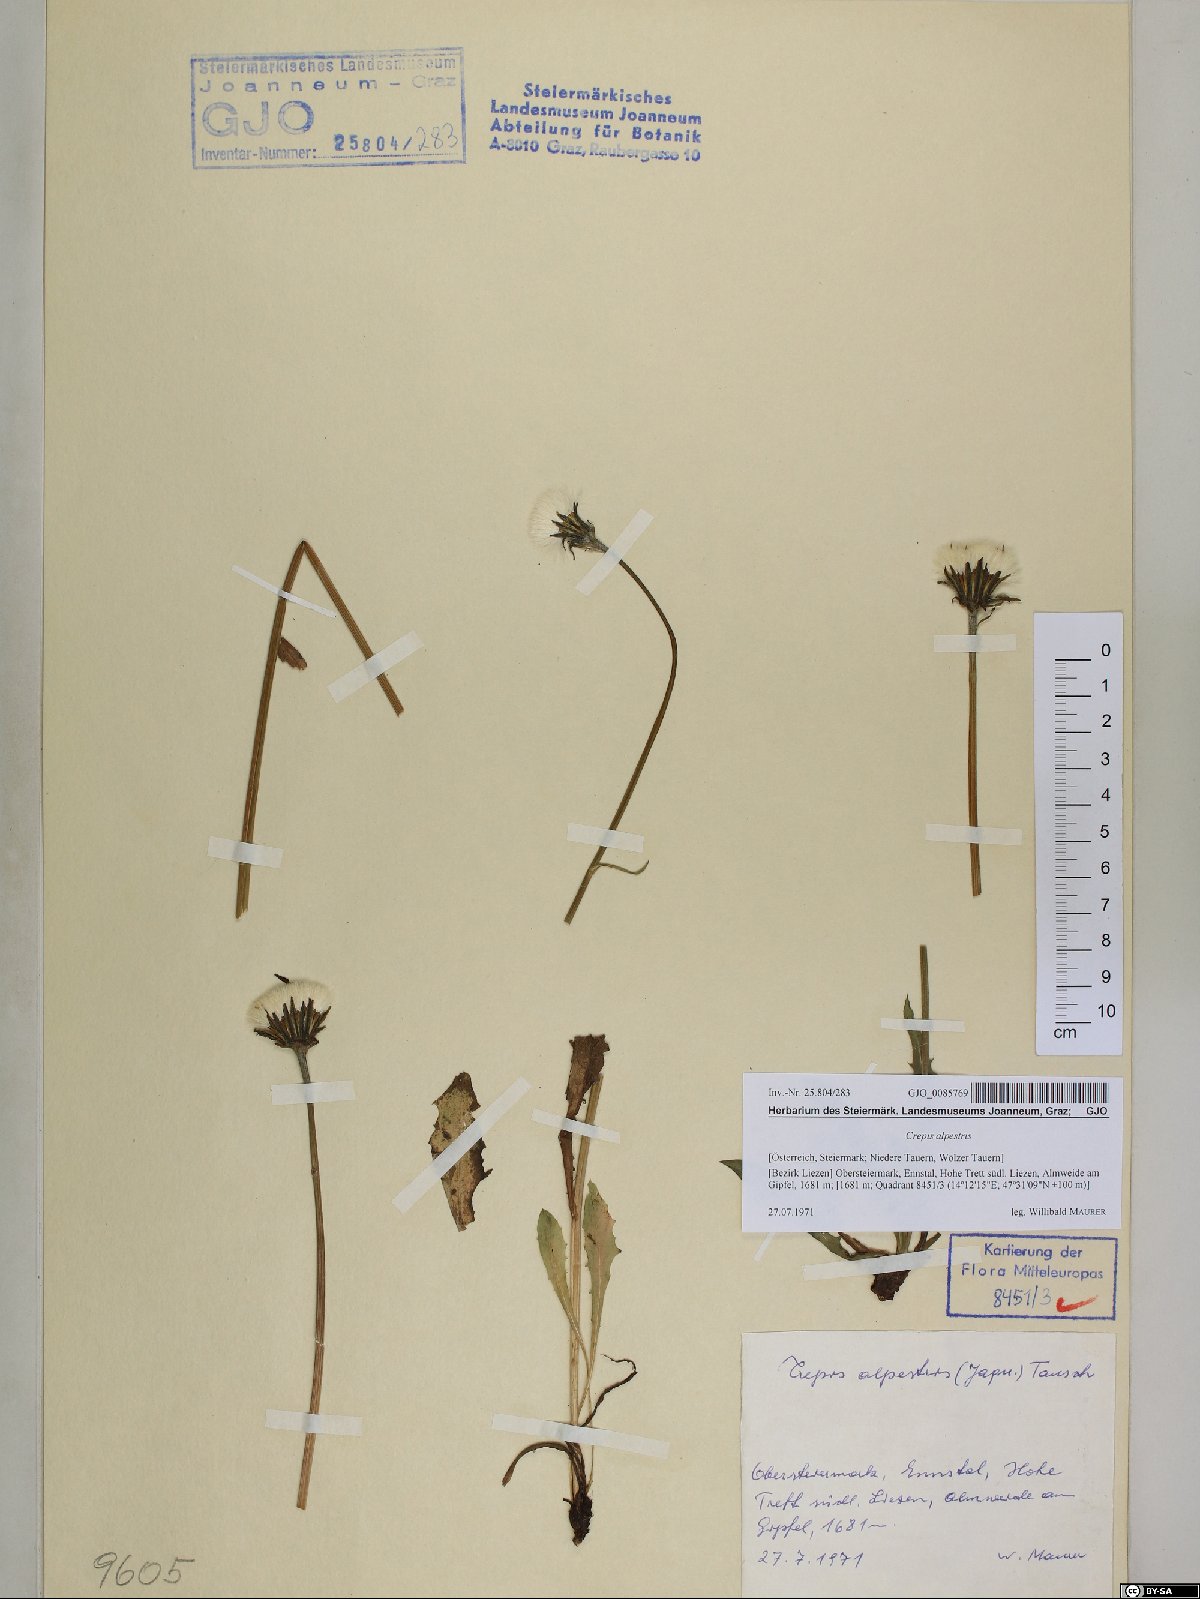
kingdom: Plantae
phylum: Tracheophyta
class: Magnoliopsida
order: Asterales
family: Asteraceae
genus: Crepis
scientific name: Crepis alpestris
